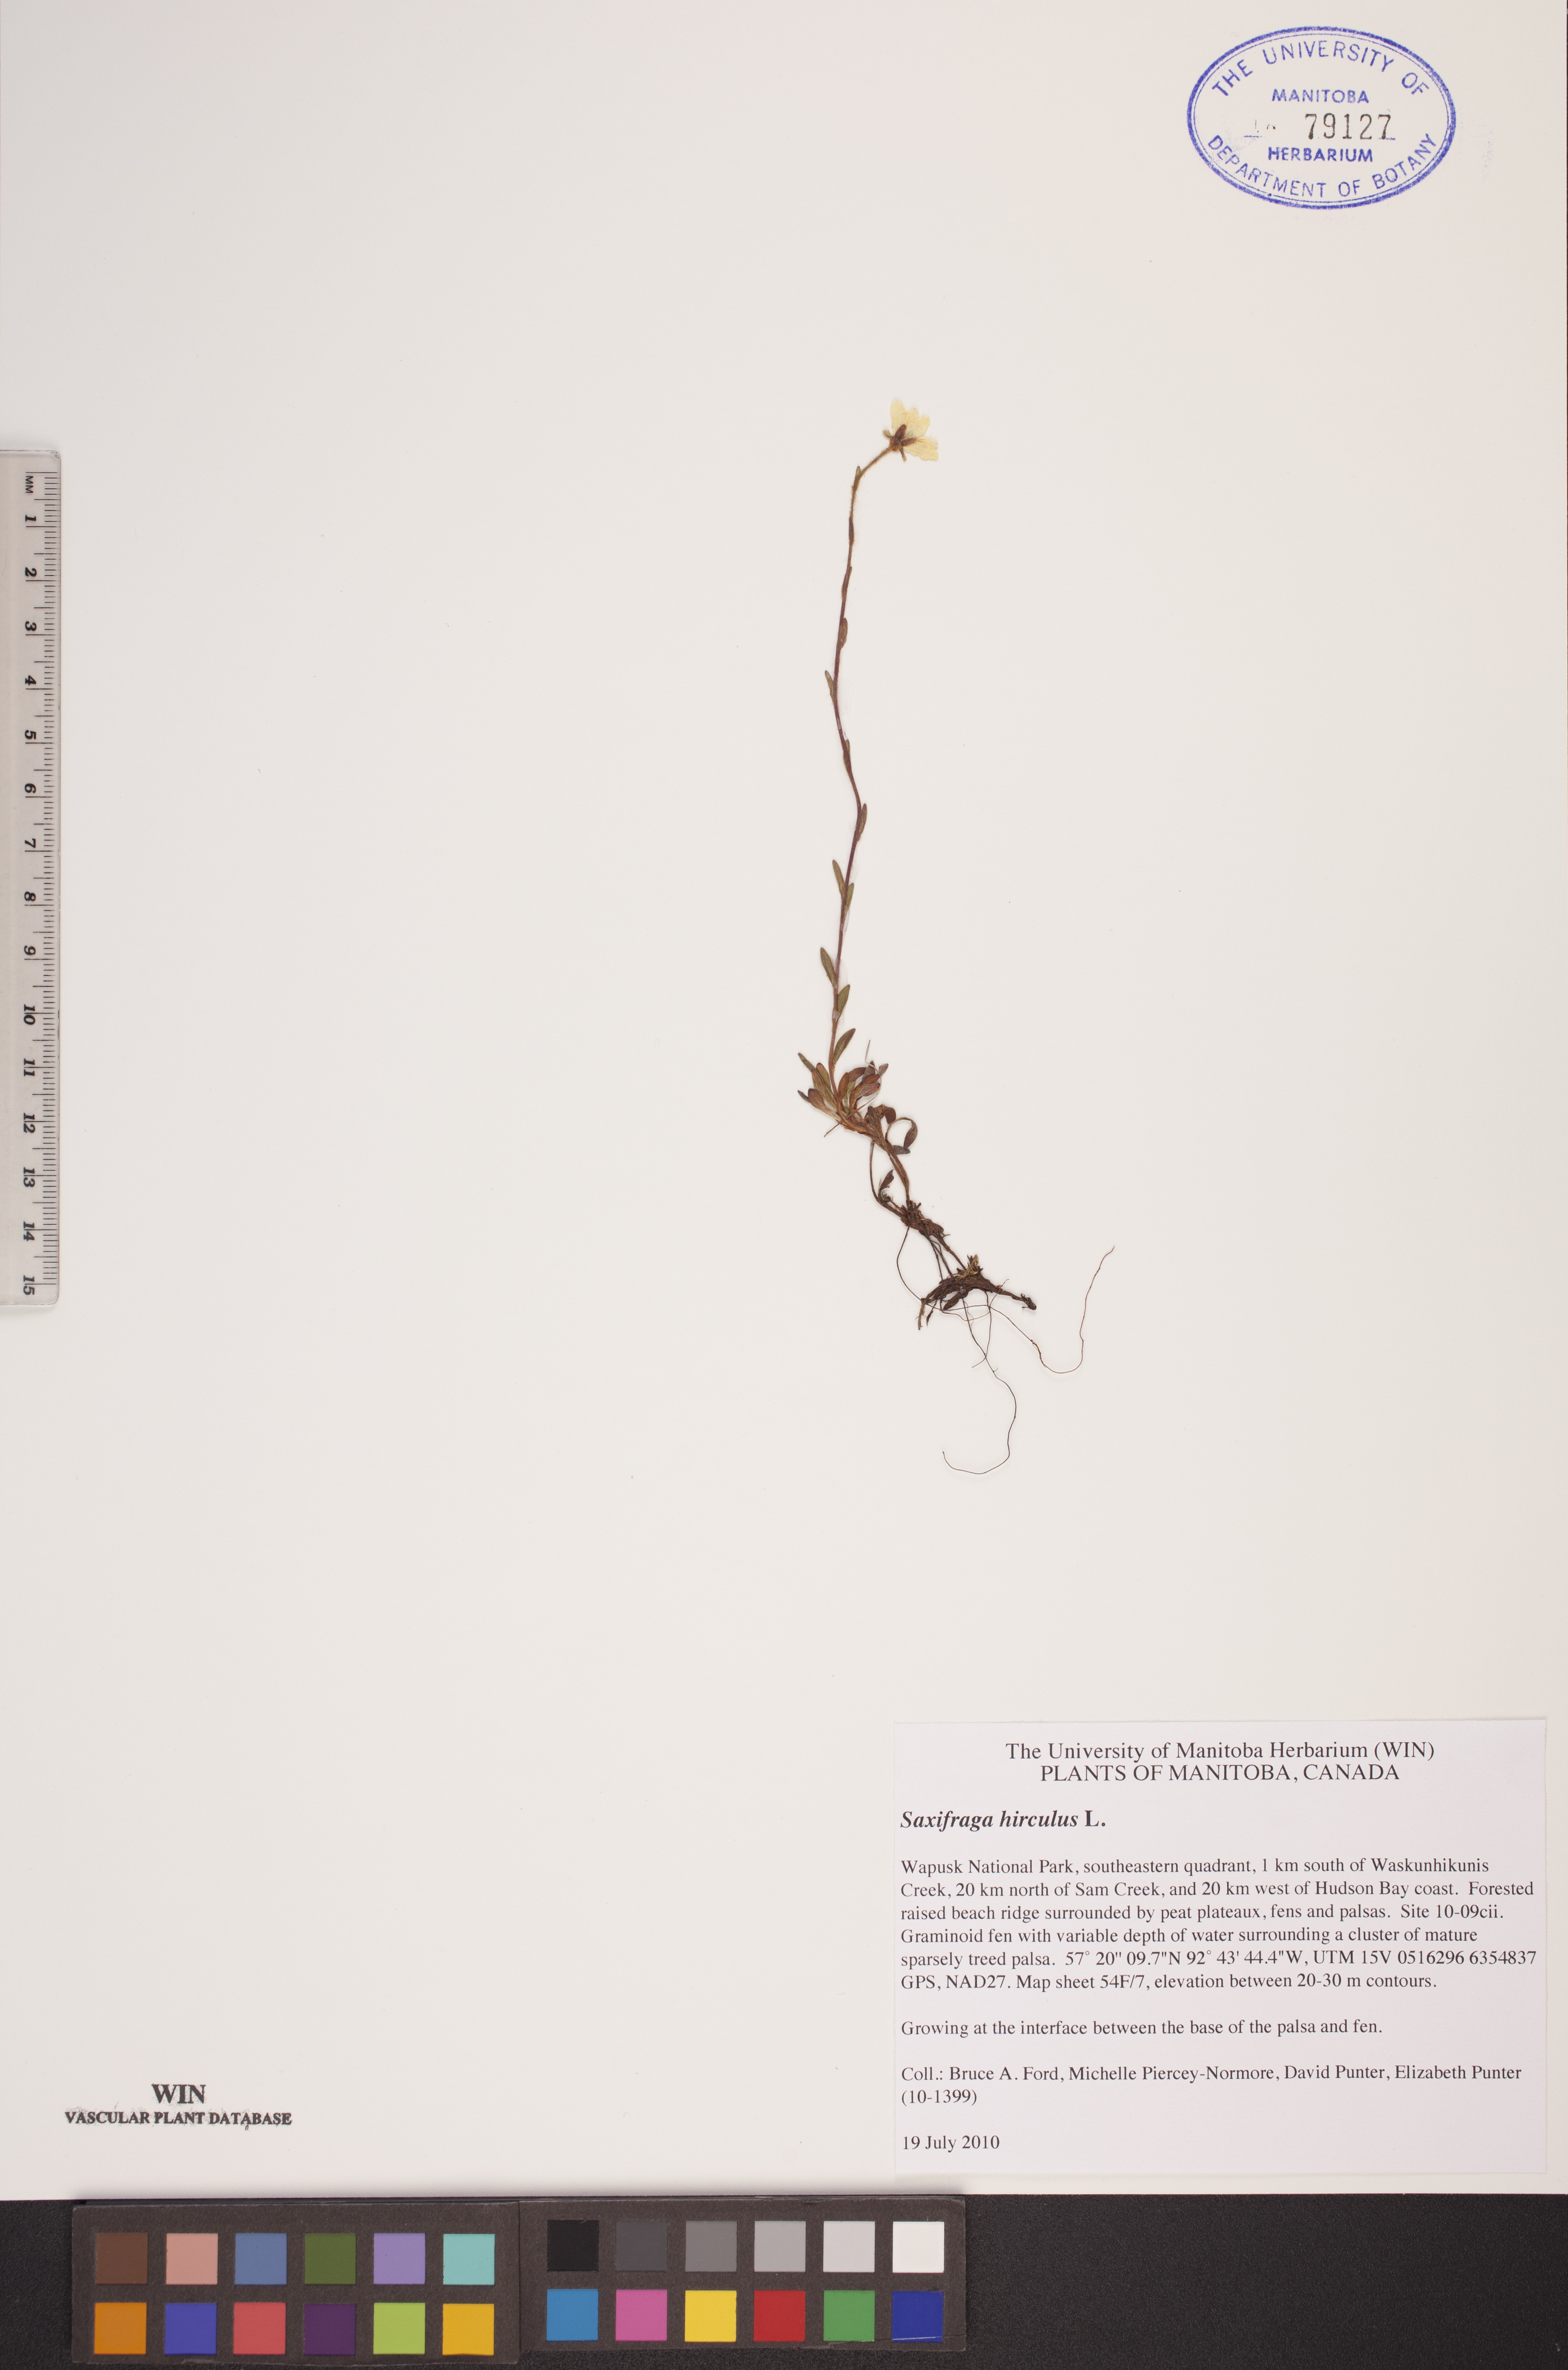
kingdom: Plantae
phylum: Tracheophyta
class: Magnoliopsida
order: Saxifragales
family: Saxifragaceae
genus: Saxifraga
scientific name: Saxifraga hirculus
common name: Yellow marsh saxifrage
